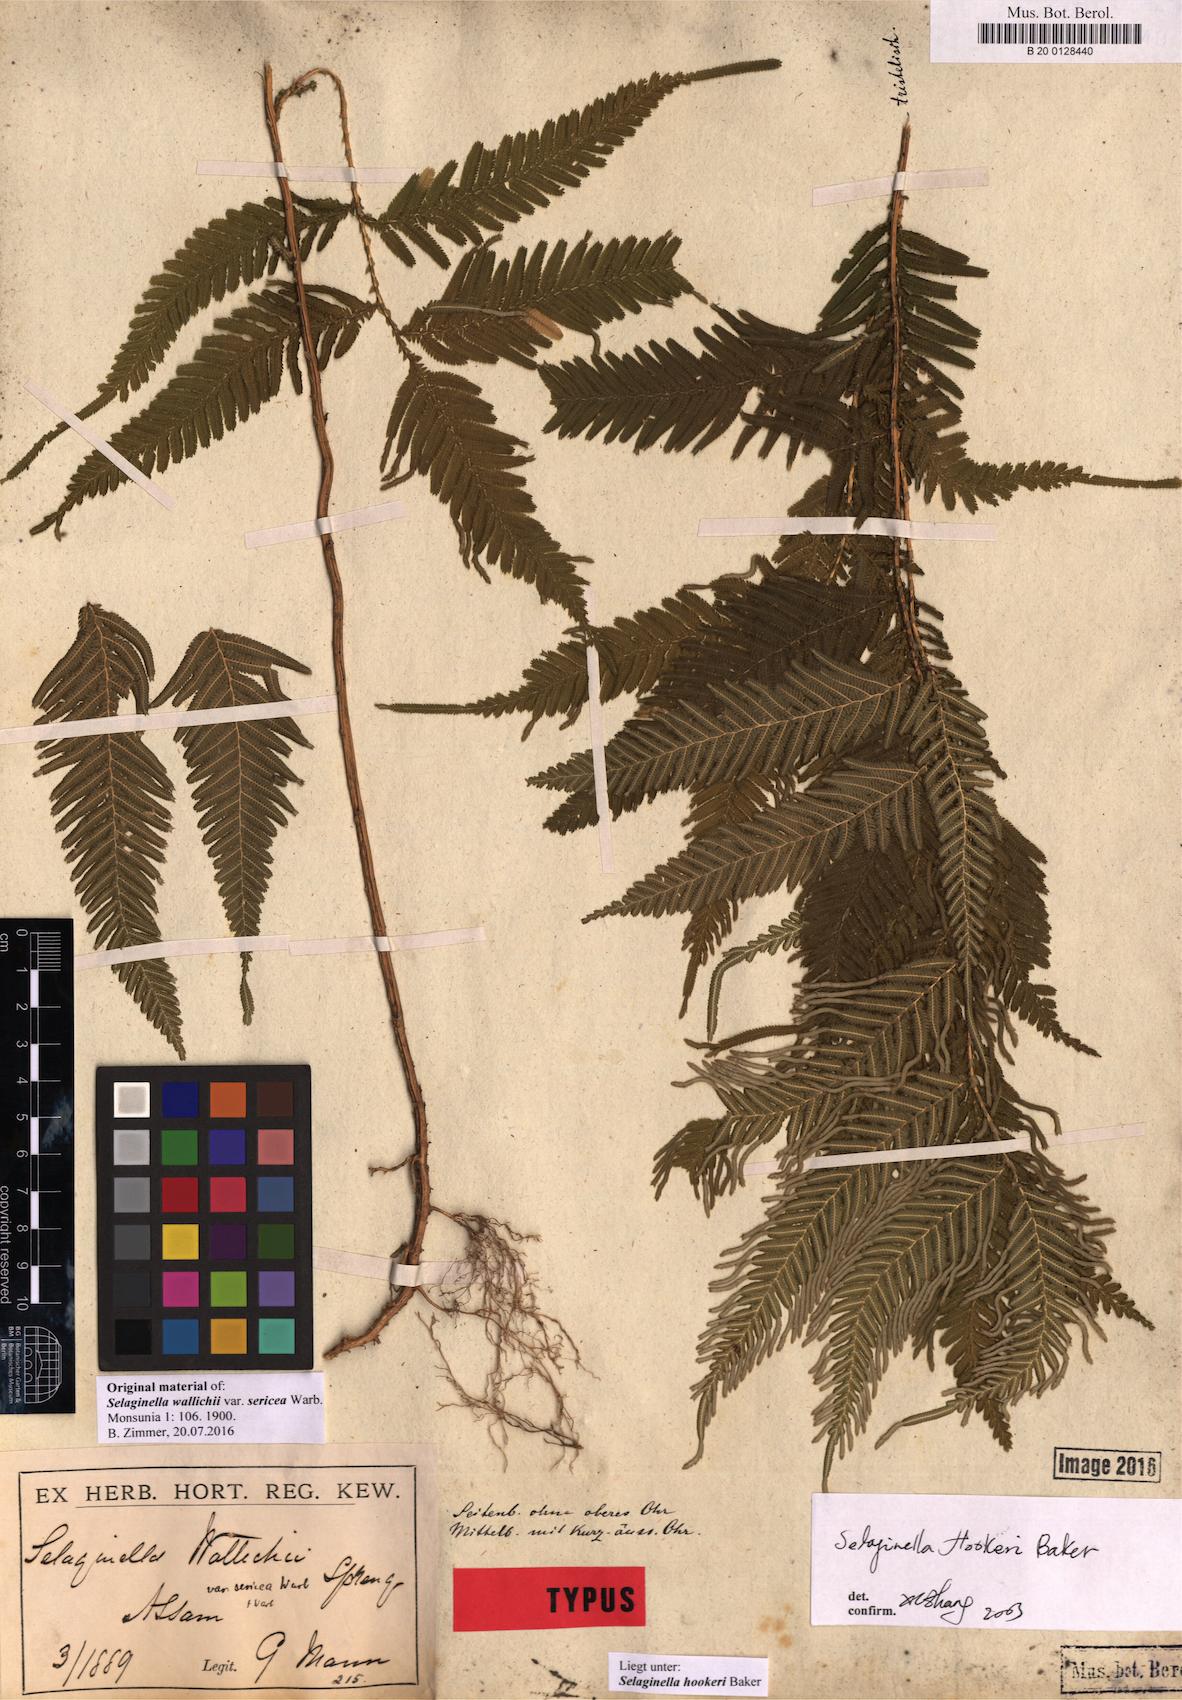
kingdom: Plantae
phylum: Tracheophyta
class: Lycopodiopsida
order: Selaginellales
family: Selaginellaceae
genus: Selaginella
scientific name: Selaginella inaequalifolia
